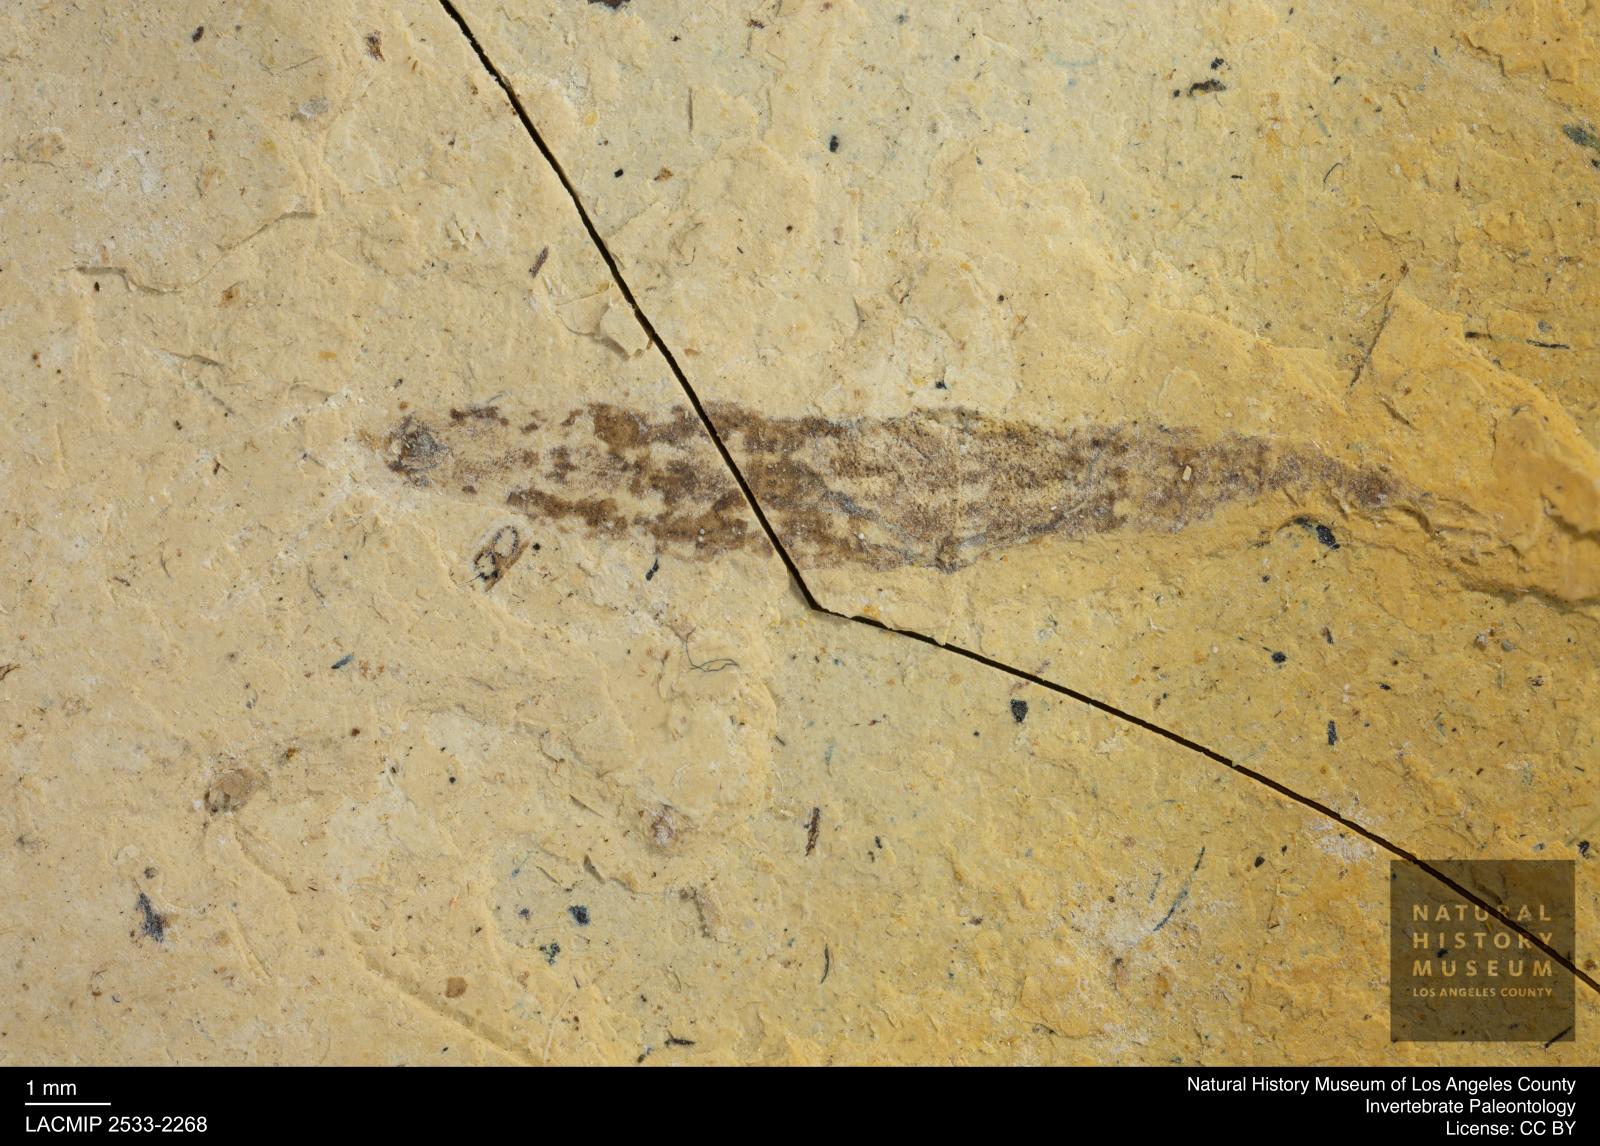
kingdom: Animalia
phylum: Arthropoda
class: Insecta
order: Diptera
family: Stratiomyidae
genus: Odontomyia
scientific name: Odontomyia
